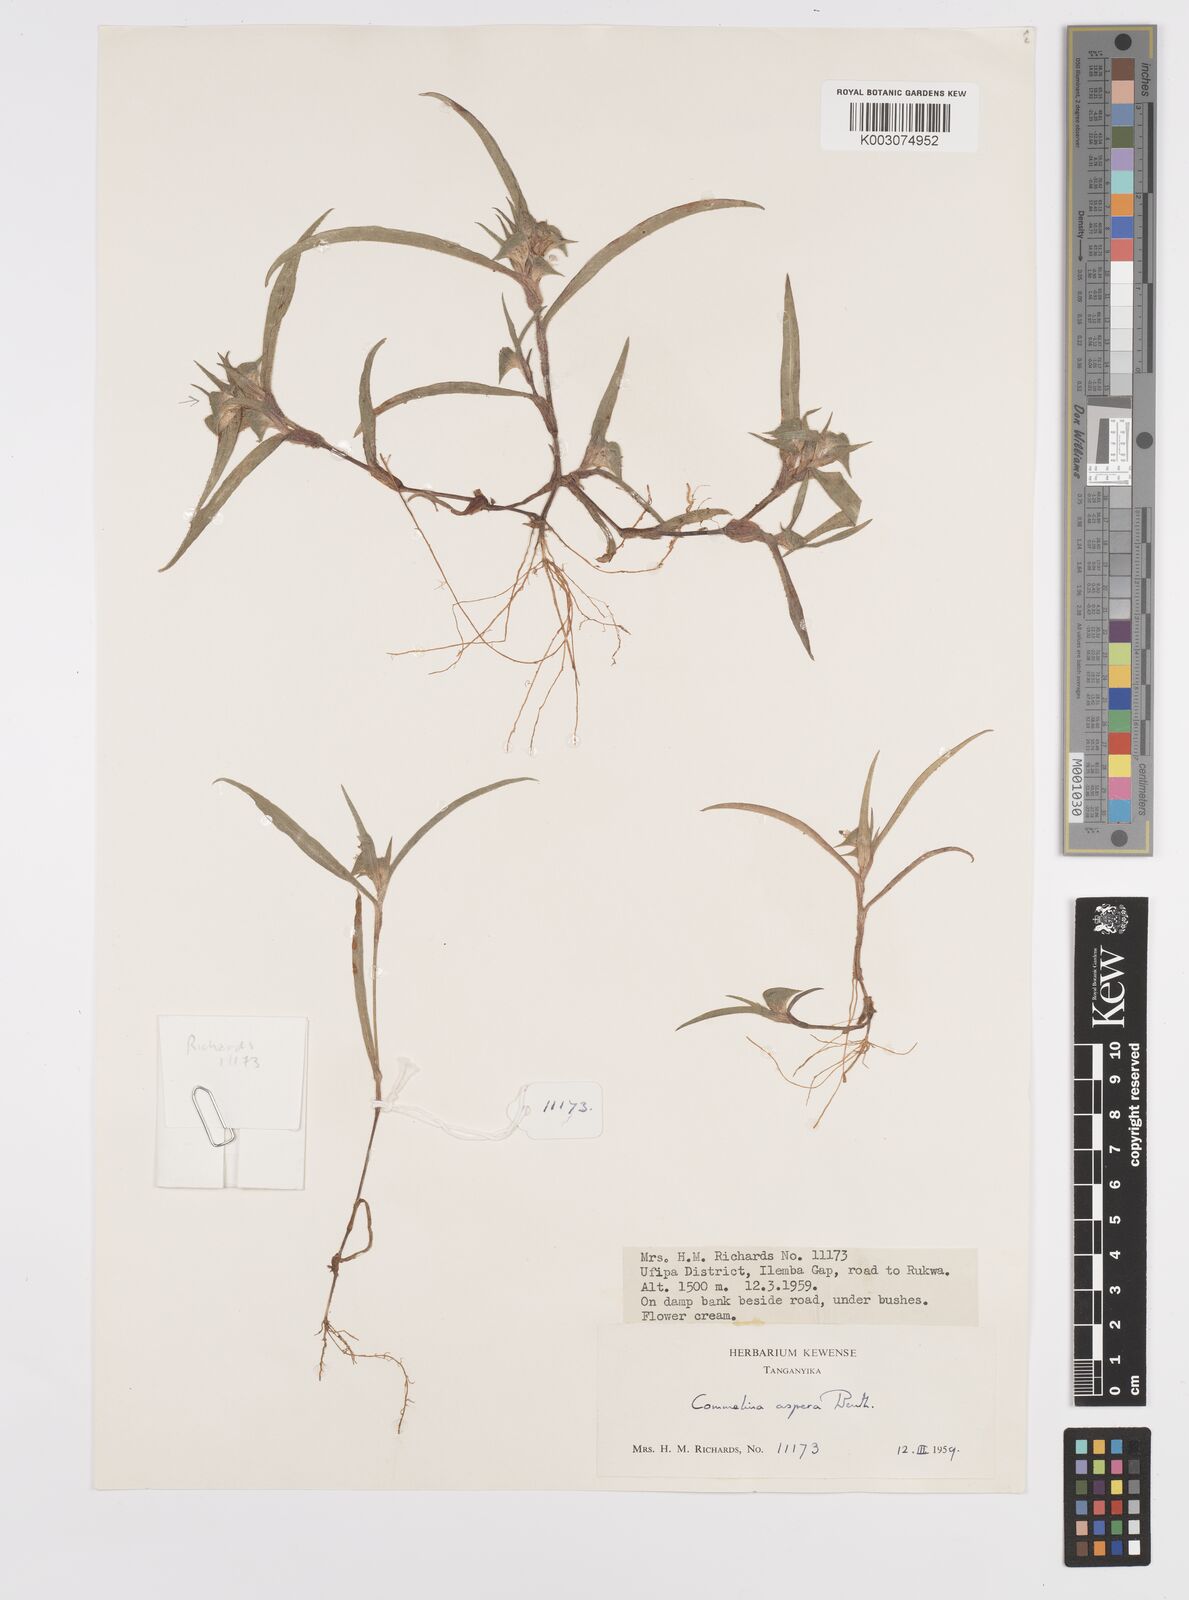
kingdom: Plantae
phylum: Tracheophyta
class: Liliopsida
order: Commelinales
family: Commelinaceae
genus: Commelina
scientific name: Commelina aspera
